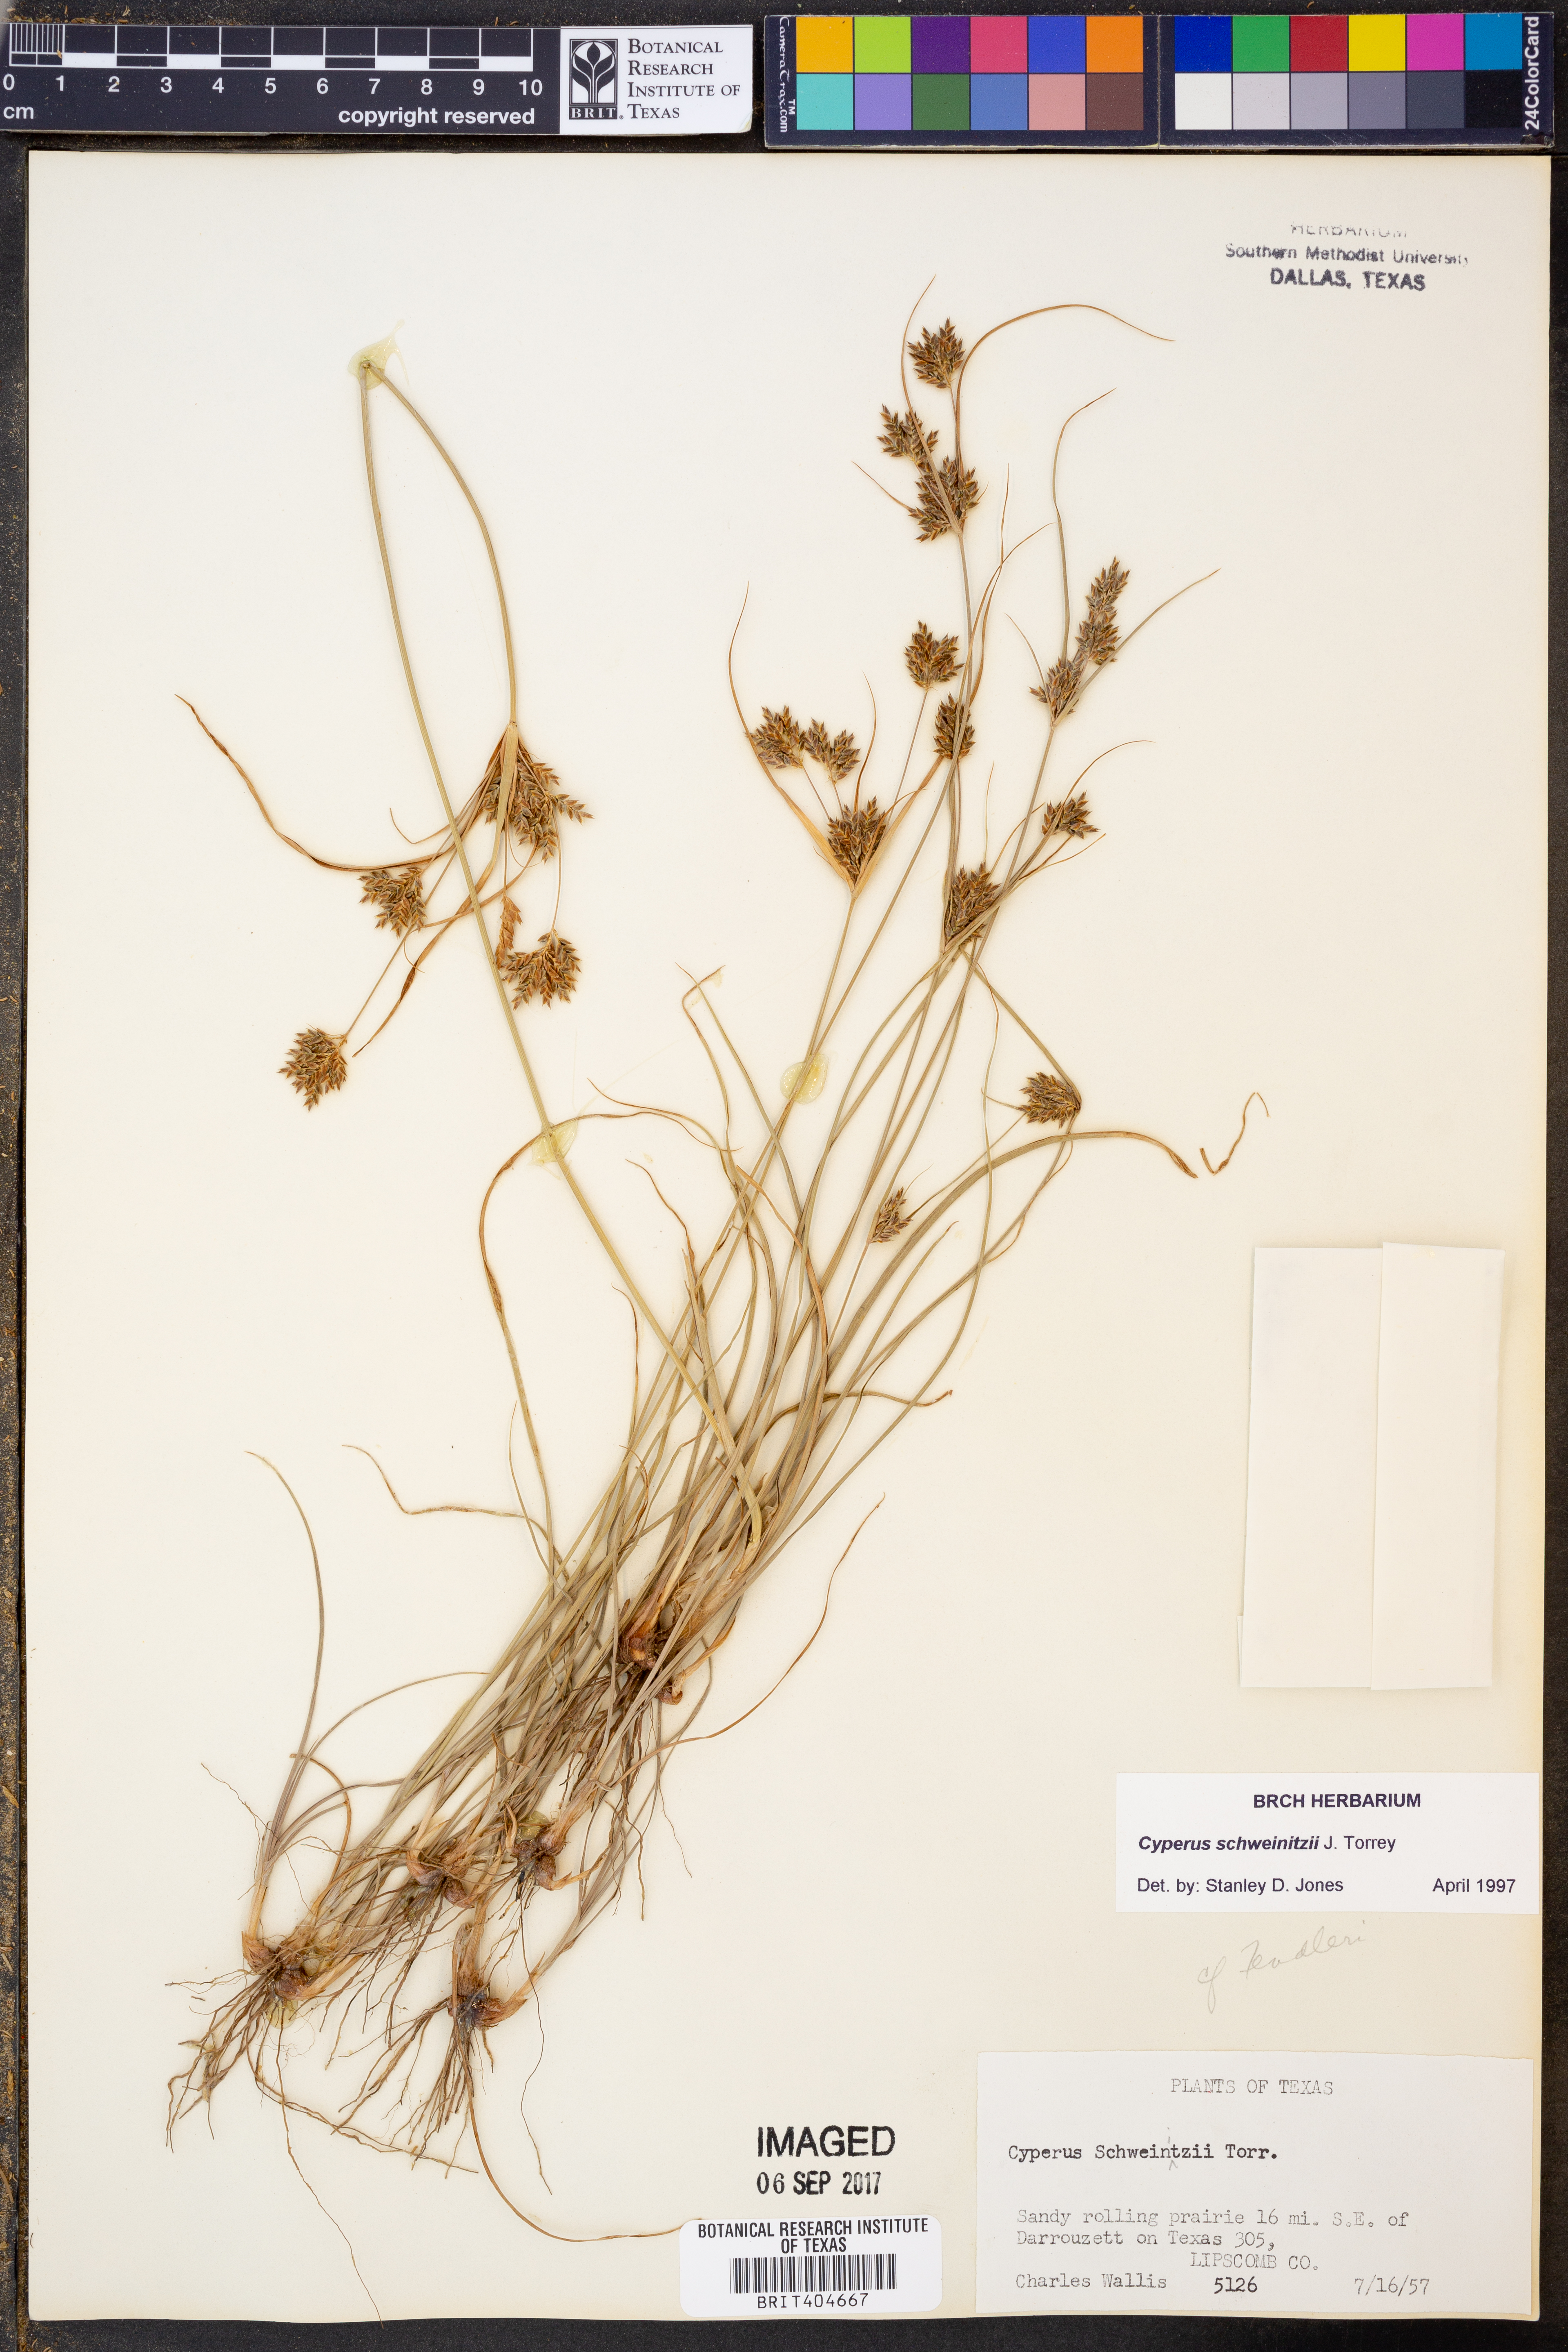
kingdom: Plantae
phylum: Tracheophyta
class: Liliopsida
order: Poales
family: Cyperaceae
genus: Cyperus
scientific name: Cyperus schweinitzii
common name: Schweinitz's cyperus
